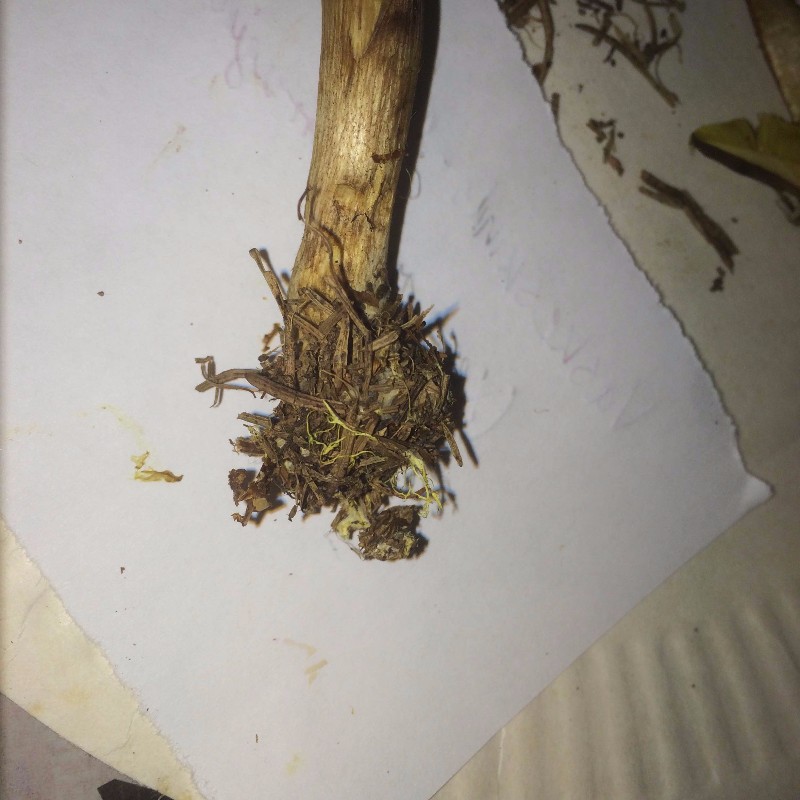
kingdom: Fungi
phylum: Basidiomycota
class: Agaricomycetes
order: Boletales
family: Boletaceae
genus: Xerocomus
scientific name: Xerocomus ferrugineus
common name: vaskeskinds-rørhat
